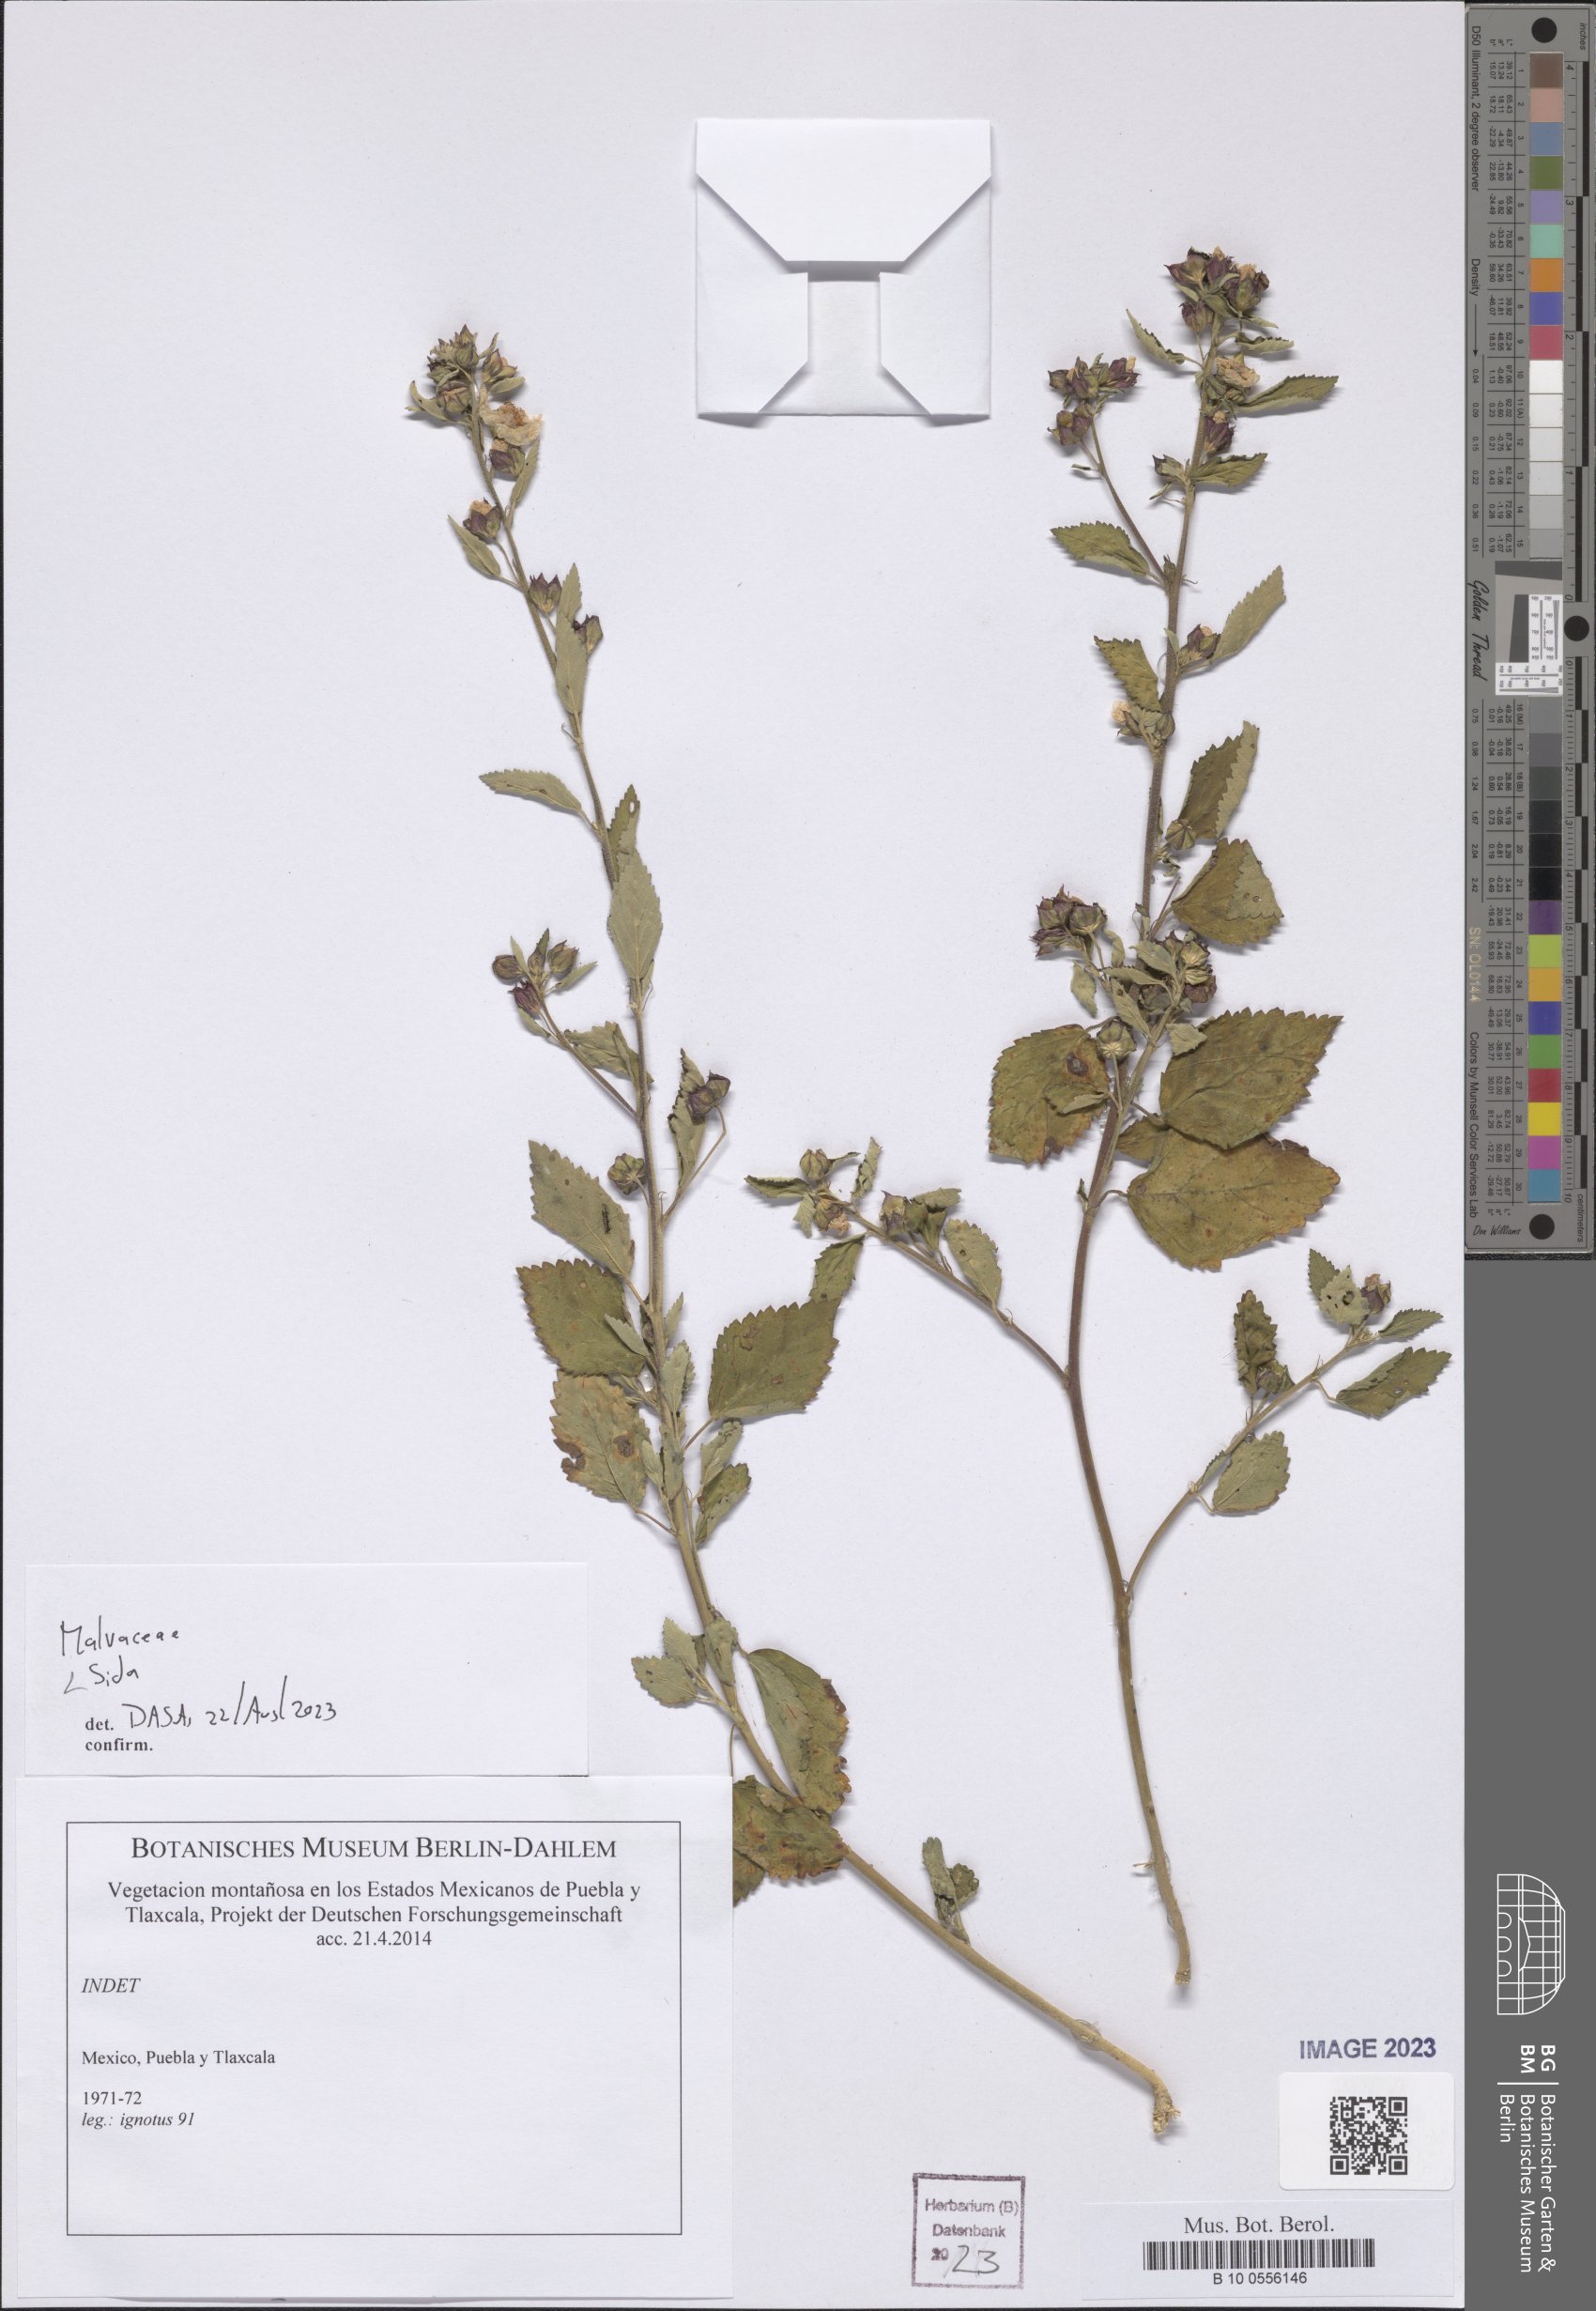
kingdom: Plantae
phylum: Tracheophyta
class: Magnoliopsida
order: Malvales
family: Malvaceae
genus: Sida
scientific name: Sida
